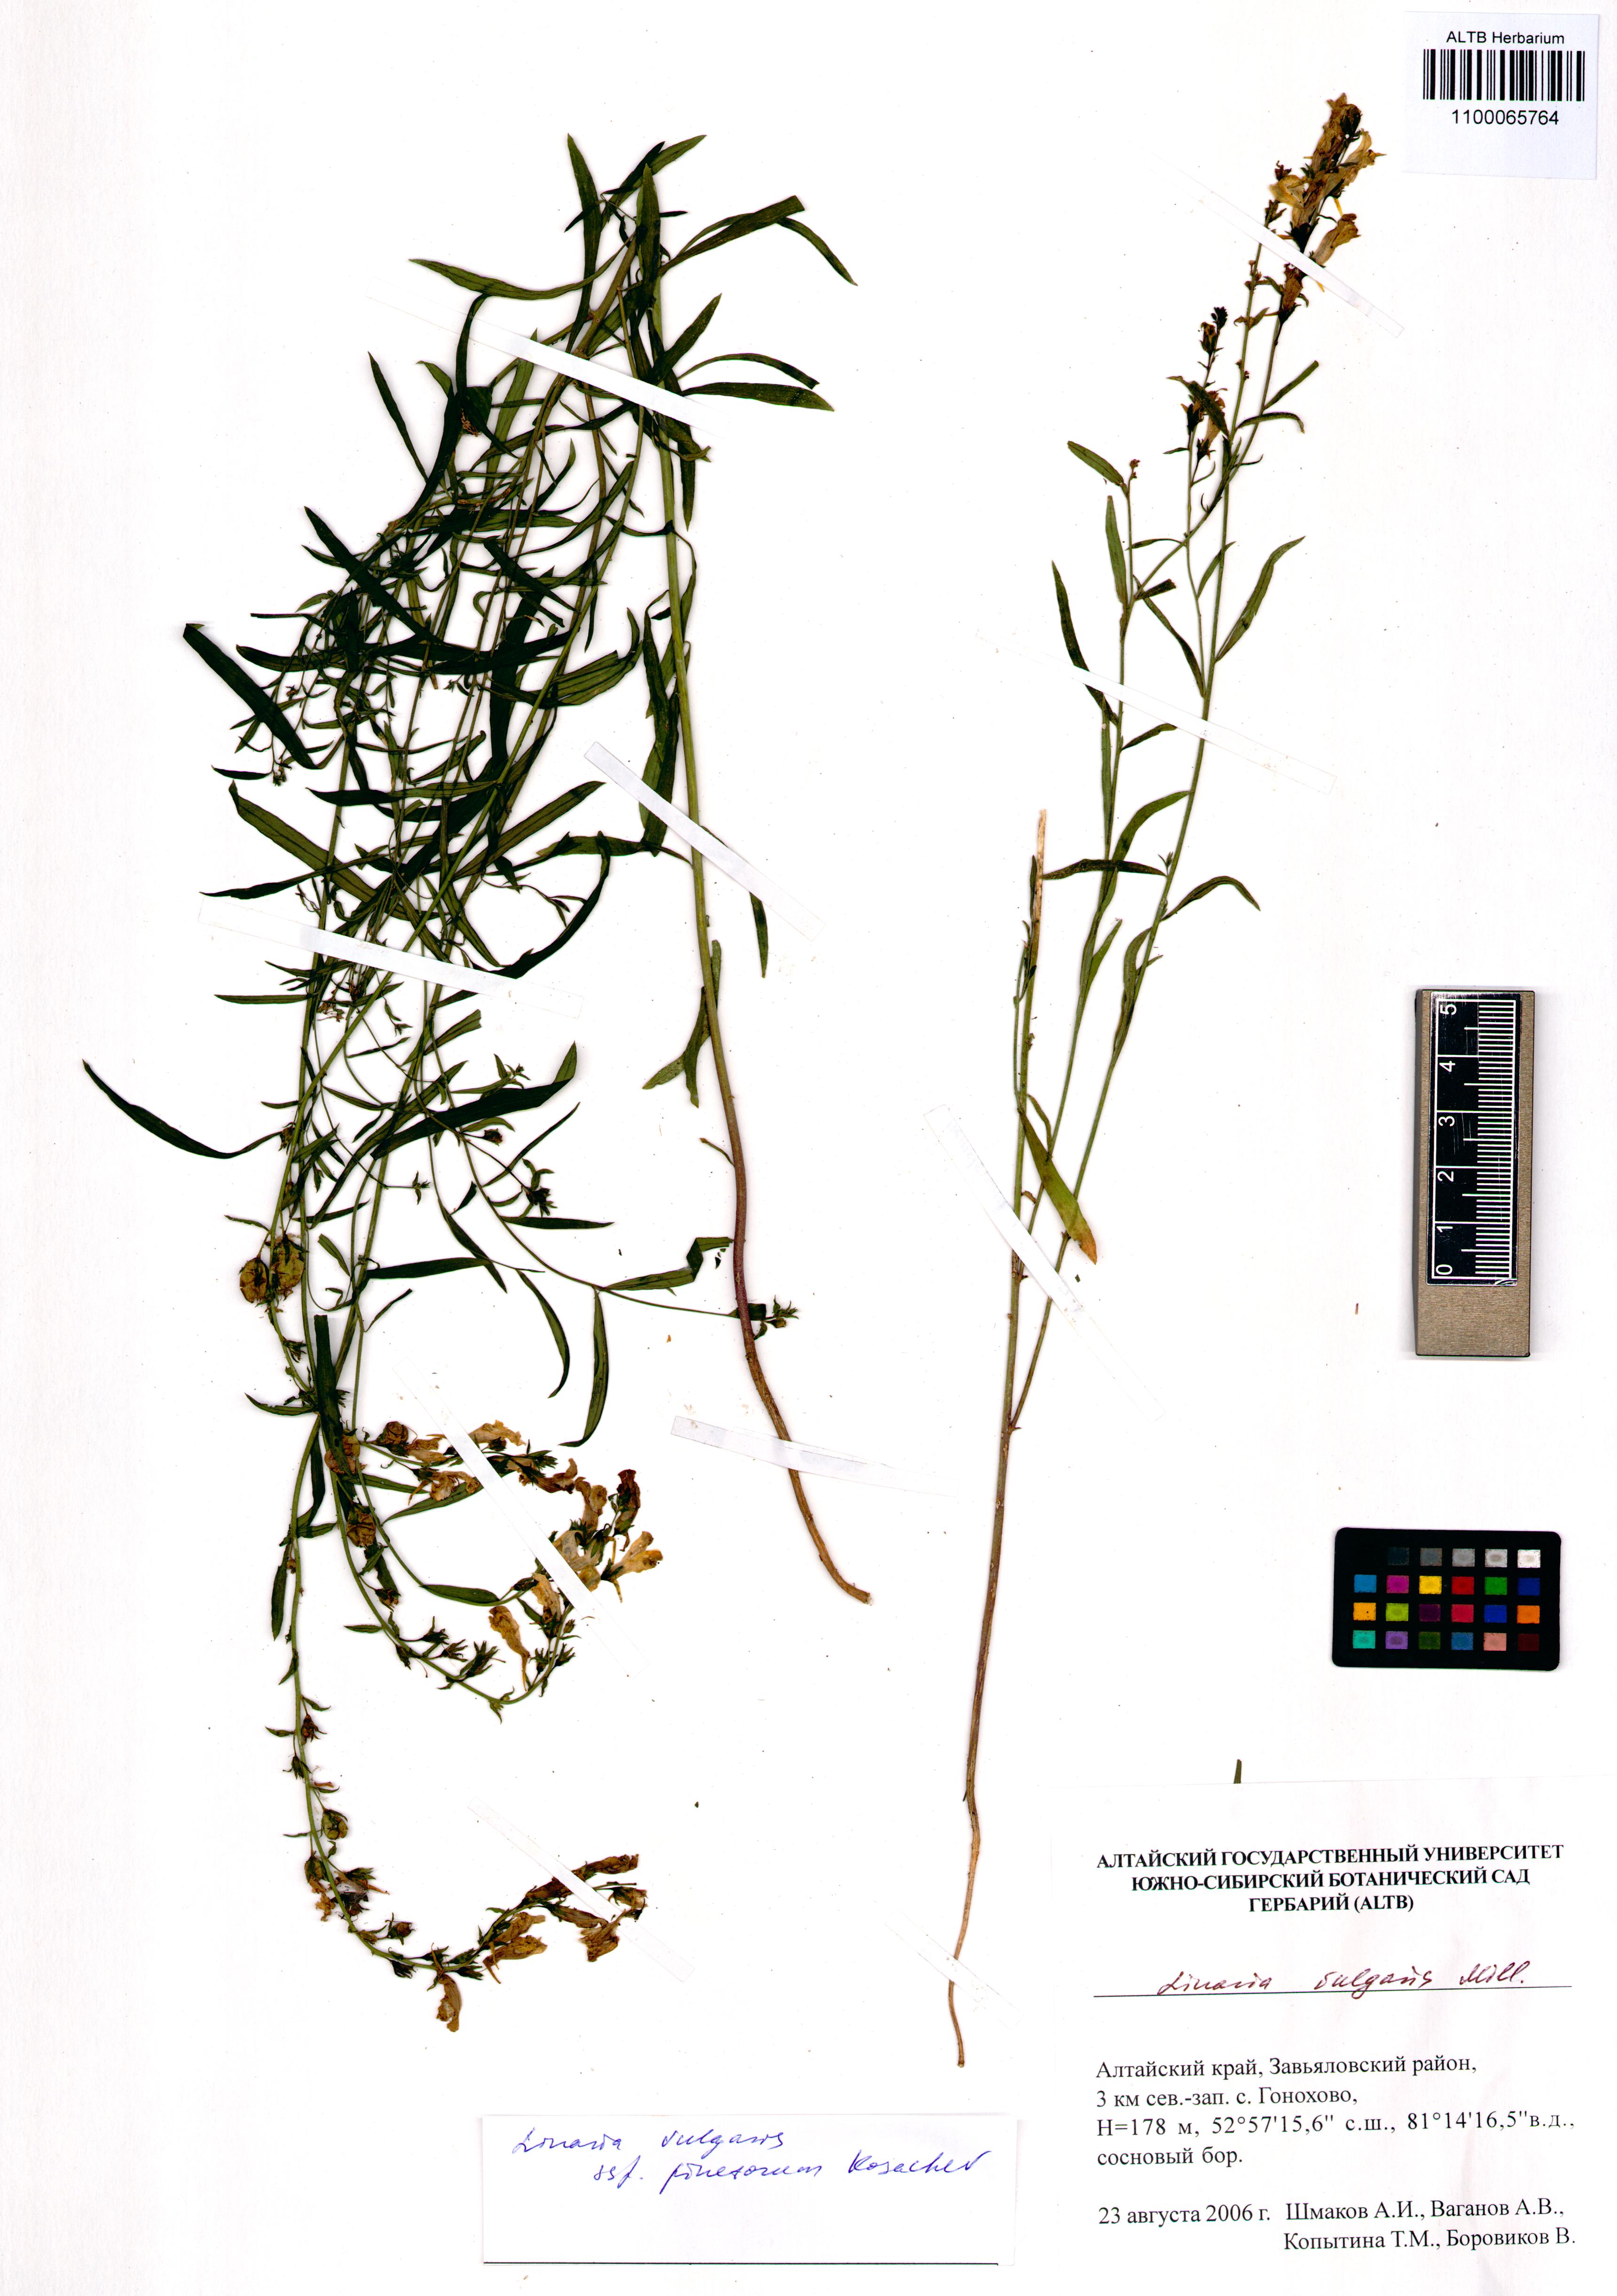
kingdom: Plantae
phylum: Tracheophyta
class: Magnoliopsida
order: Lamiales
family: Plantaginaceae
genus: Linaria
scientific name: Linaria vulgaris
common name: Butter and eggs
